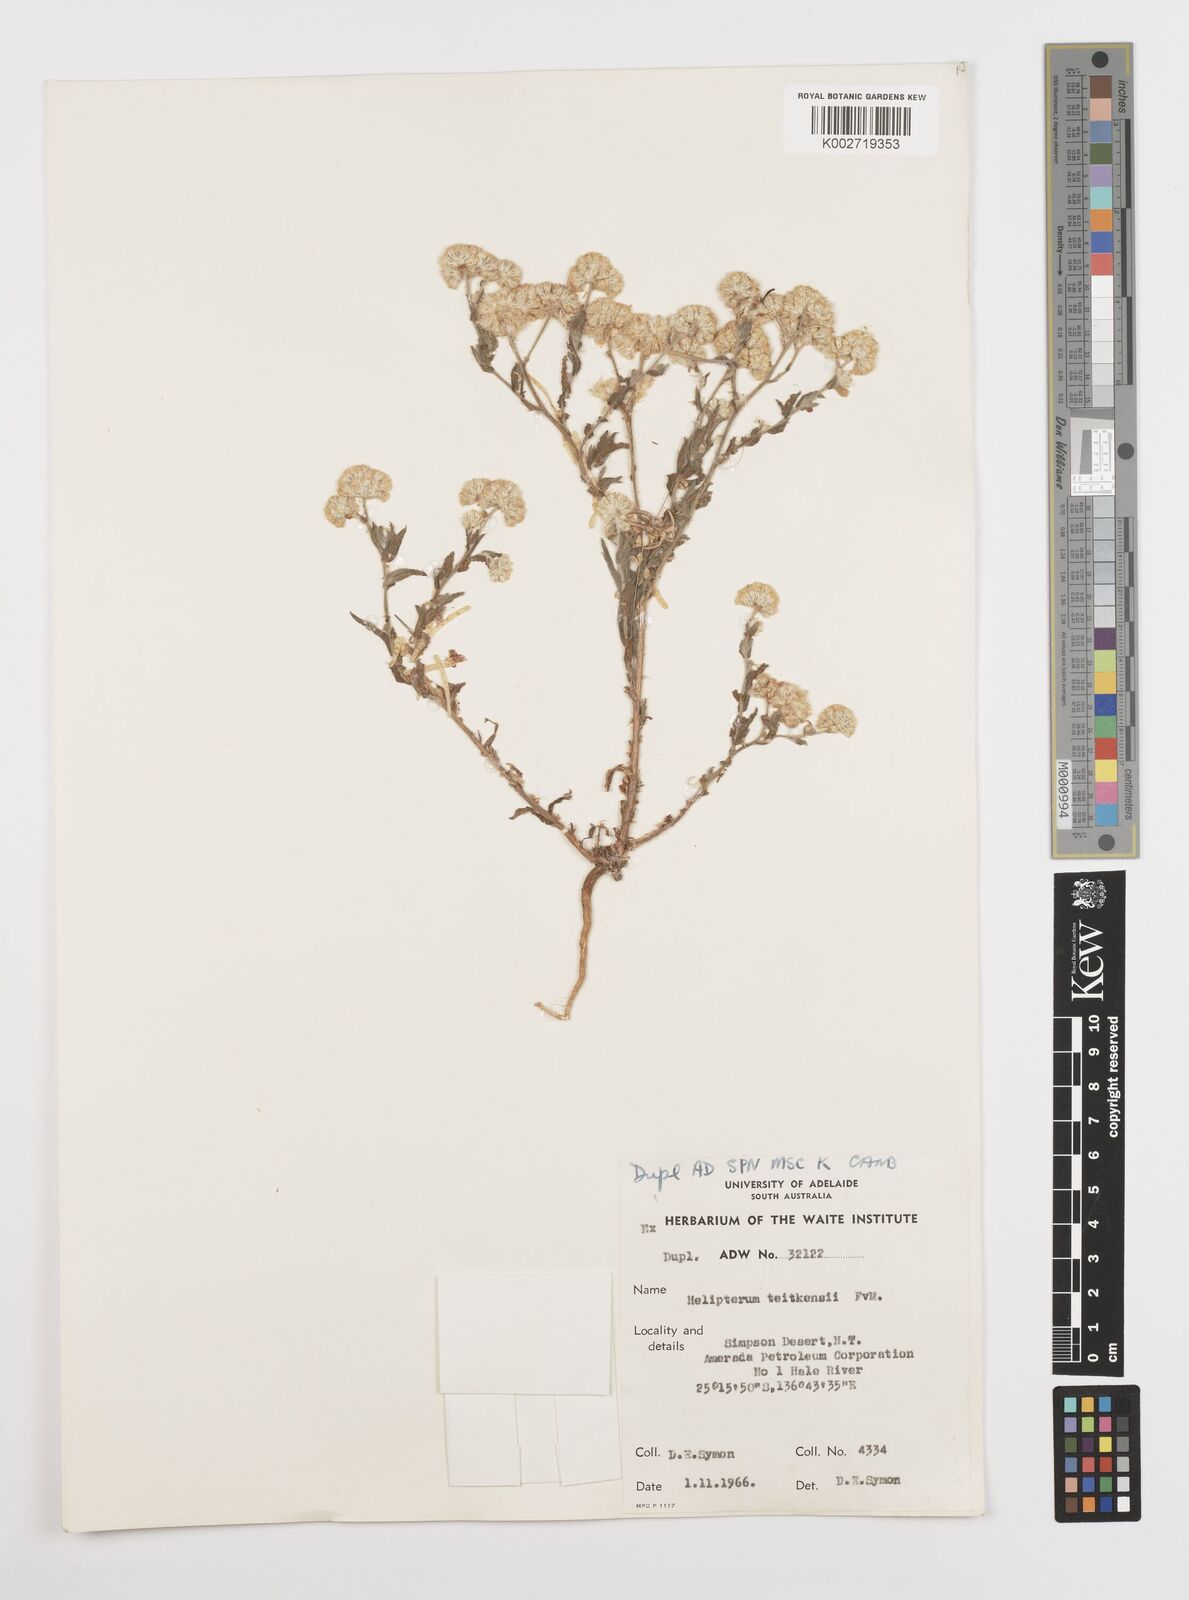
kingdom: Plantae
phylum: Tracheophyta
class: Magnoliopsida
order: Asterales
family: Asteraceae
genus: Rhodanthe
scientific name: Rhodanthe tietkensii
